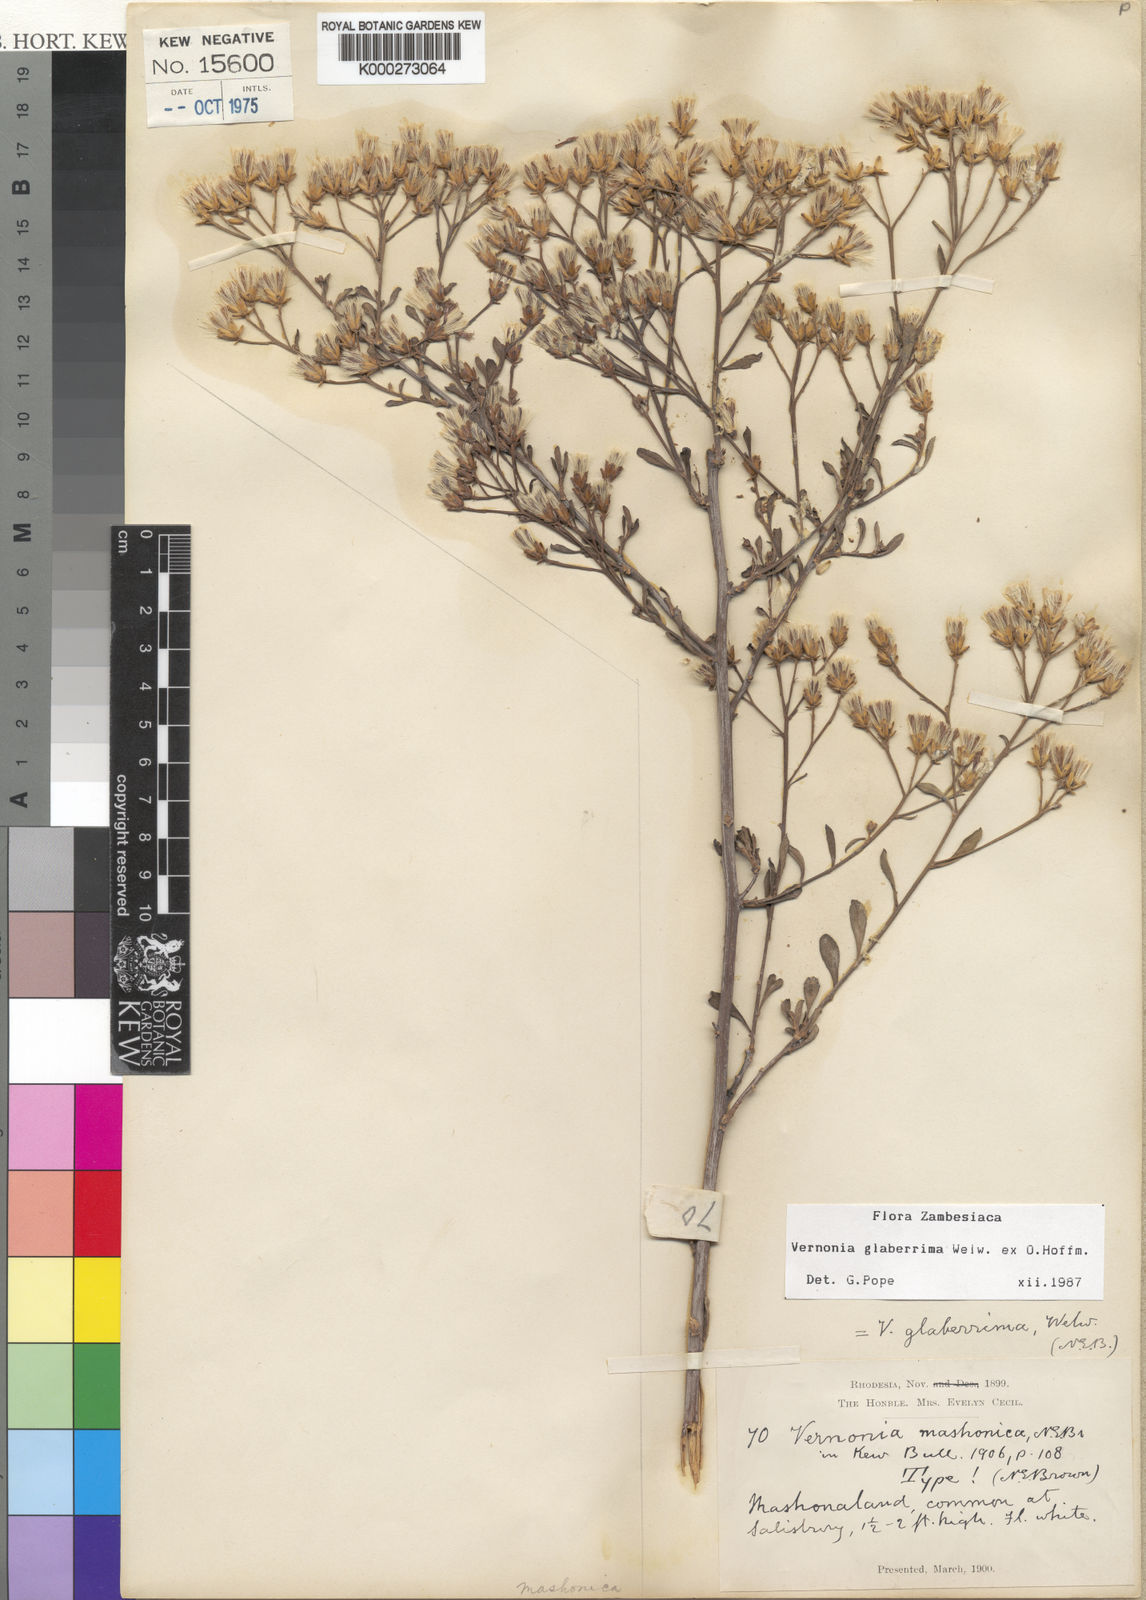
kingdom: Plantae
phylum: Tracheophyta
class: Magnoliopsida
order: Asterales
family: Asteraceae
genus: Gymnanthemum
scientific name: Gymnanthemum glaberrimum
